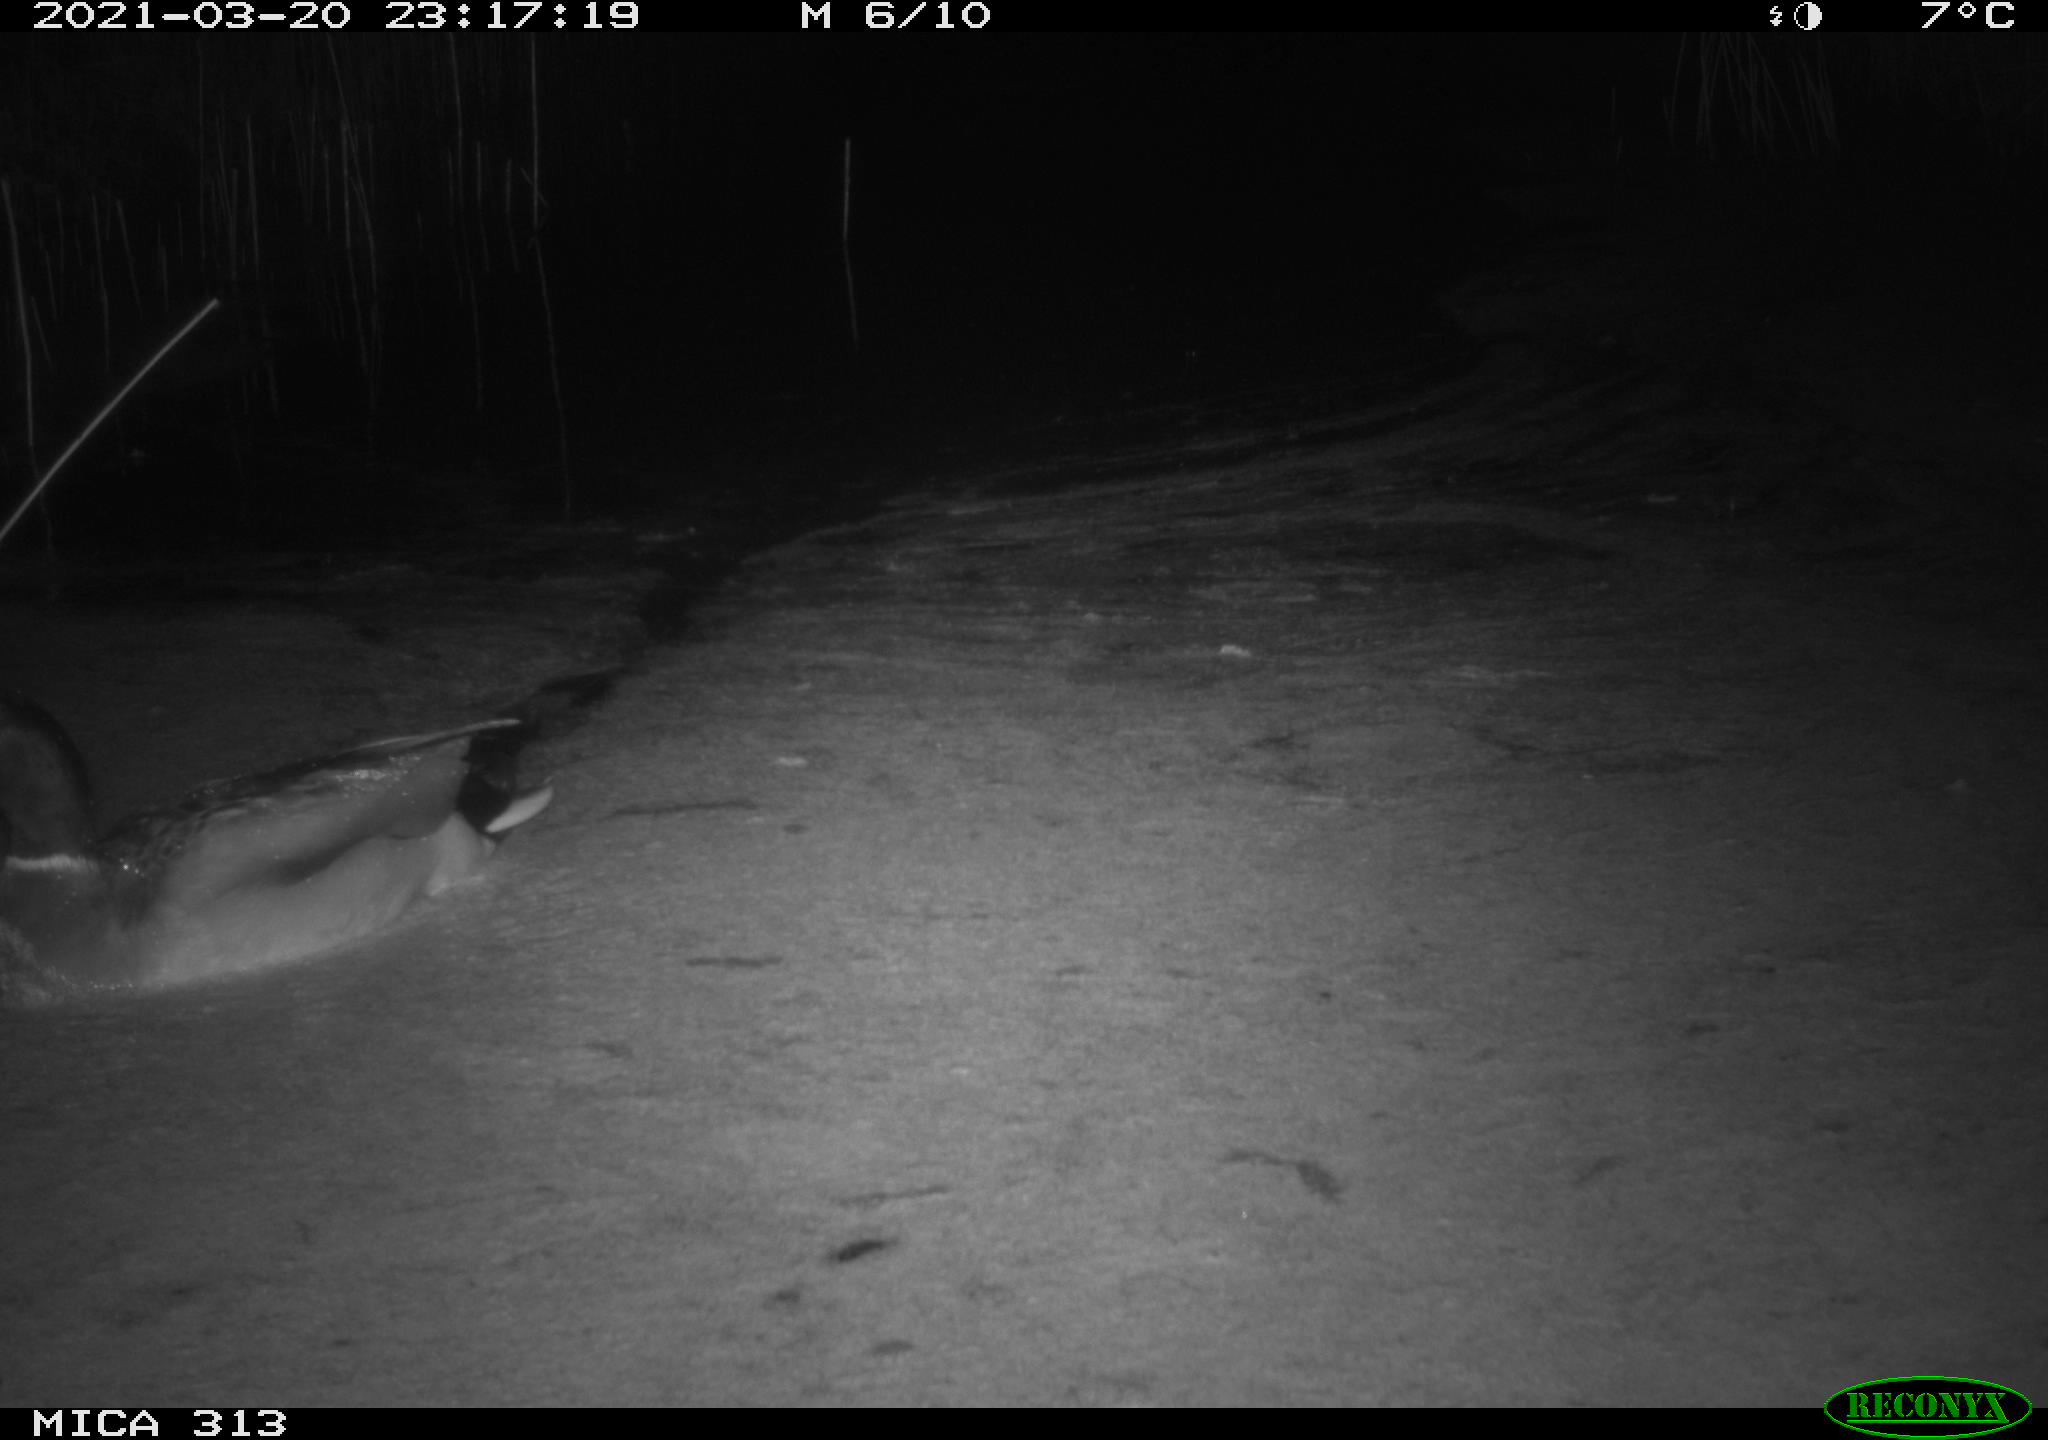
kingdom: Animalia
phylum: Chordata
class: Aves
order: Gruiformes
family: Rallidae
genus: Fulica
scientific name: Fulica atra
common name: Eurasian coot
